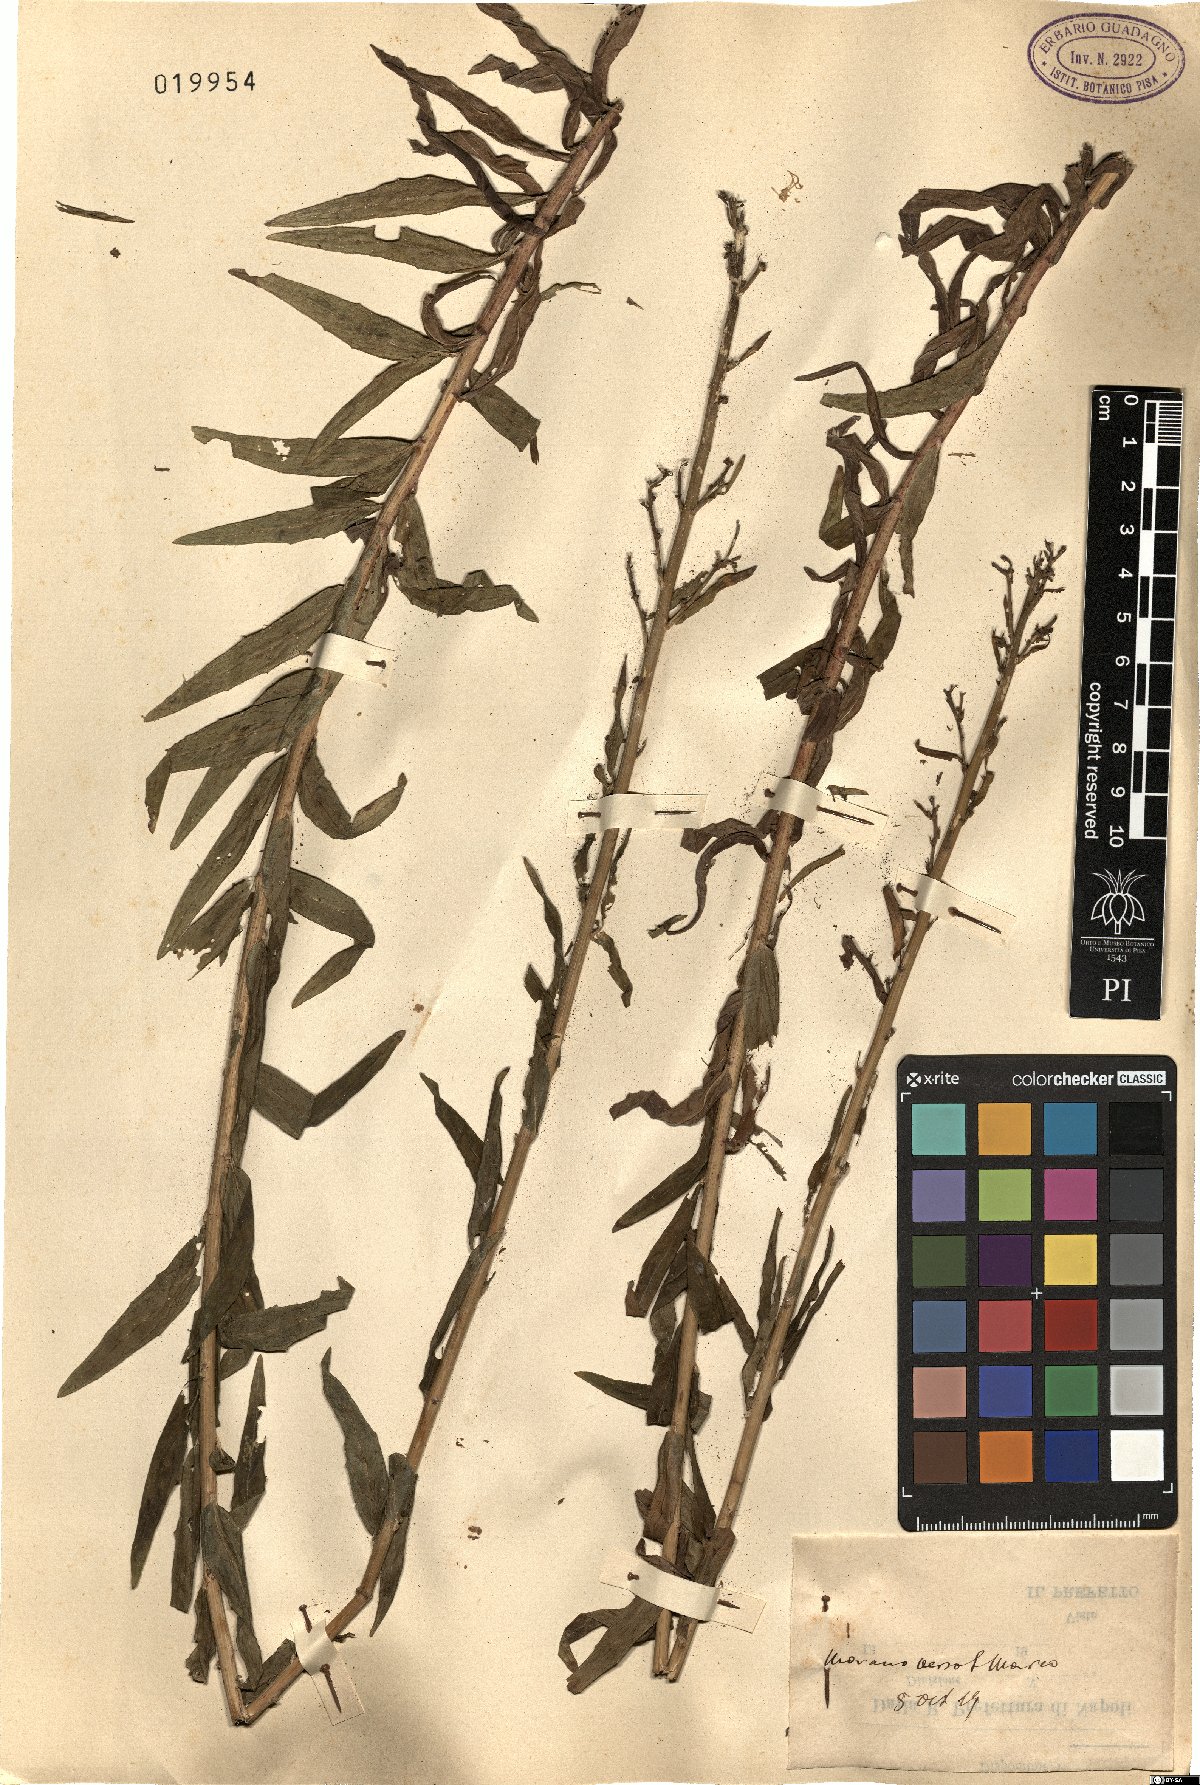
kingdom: Plantae
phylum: Tracheophyta
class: Magnoliopsida
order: Asterales
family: Asteraceae
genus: Hieracium
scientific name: Hieracium
